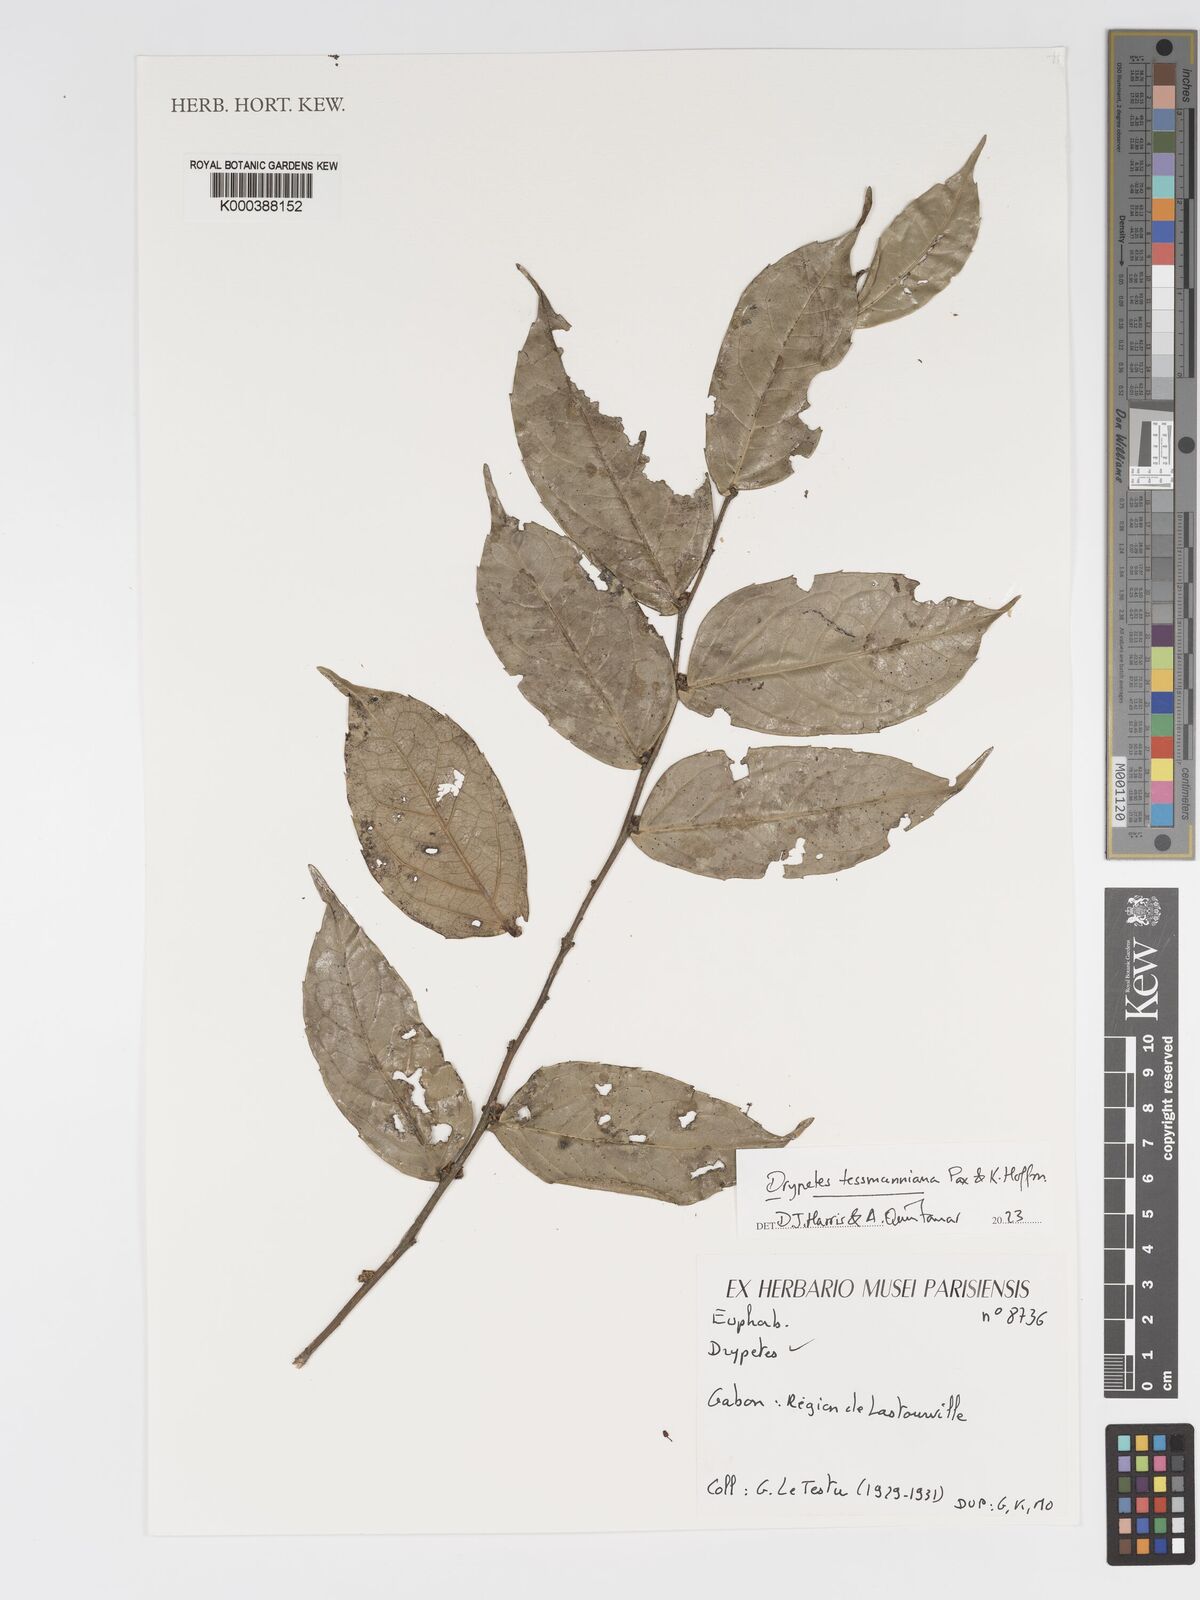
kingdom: Plantae
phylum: Tracheophyta
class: Magnoliopsida
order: Malpighiales
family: Putranjivaceae
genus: Drypetes
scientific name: Drypetes
